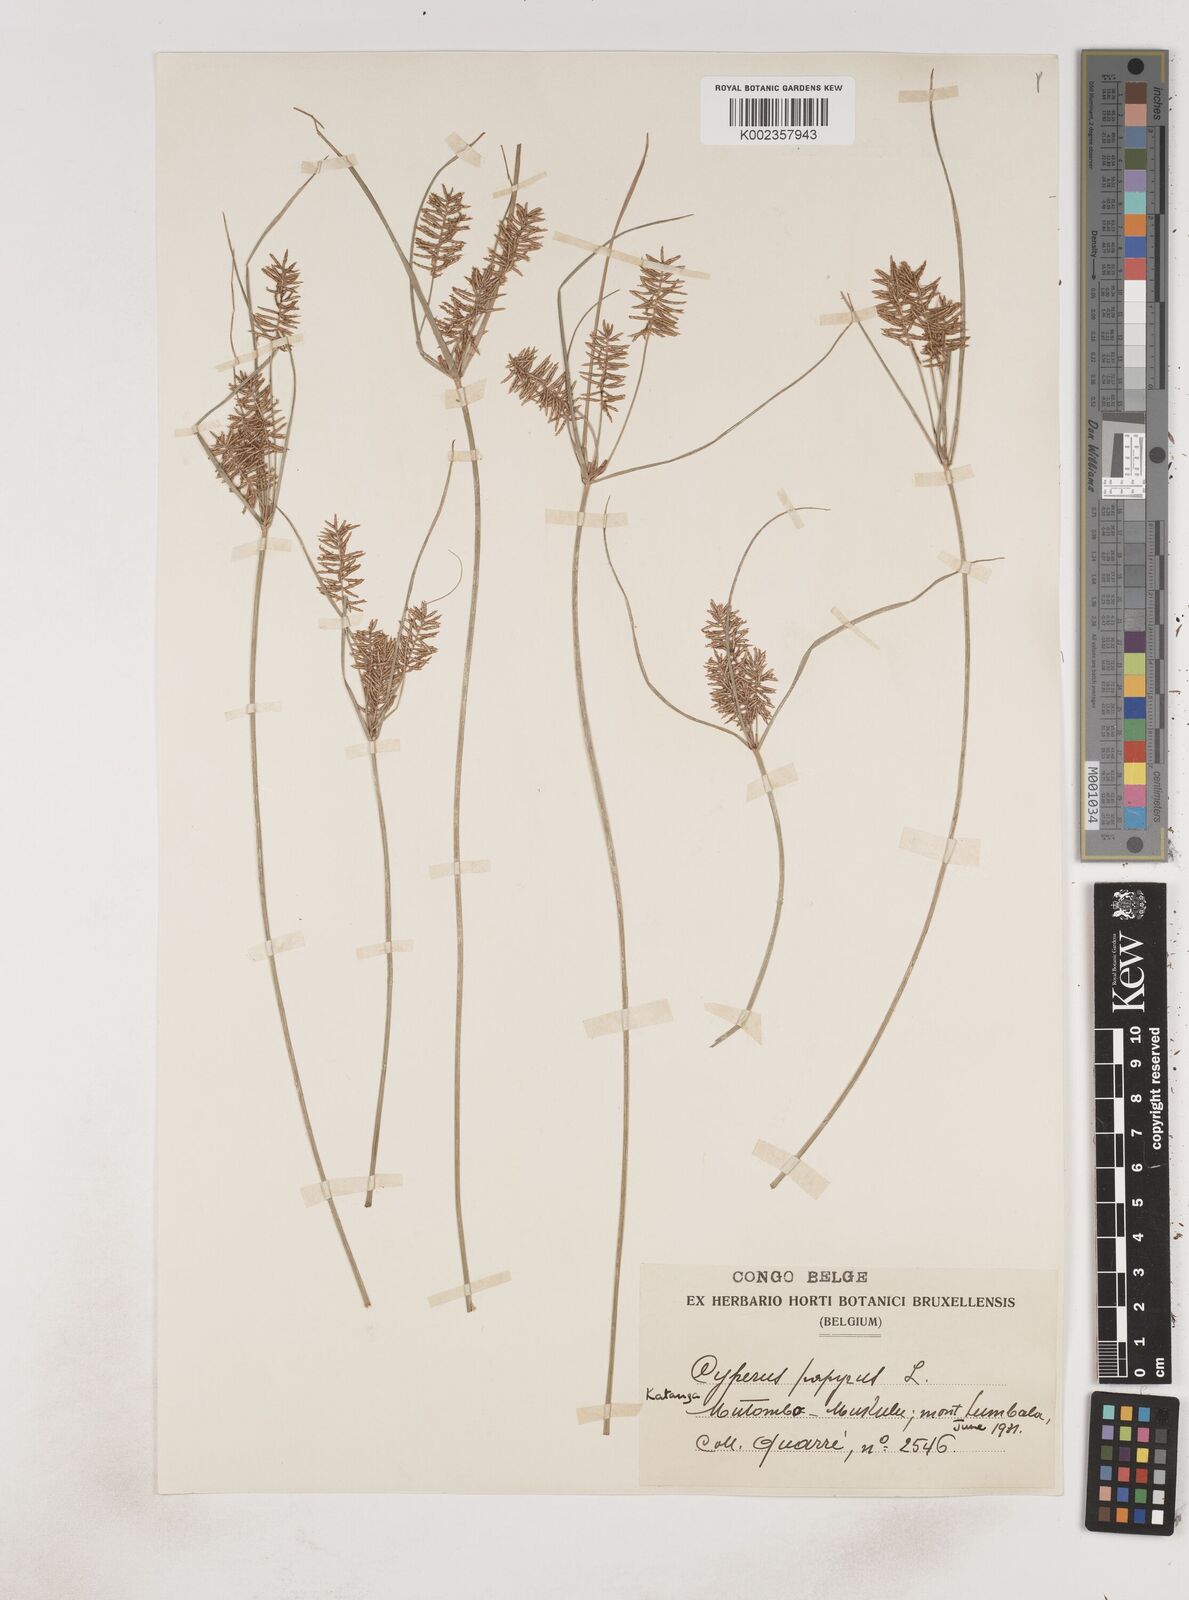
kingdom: Plantae
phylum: Tracheophyta
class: Liliopsida
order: Poales
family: Cyperaceae
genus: Cyperus
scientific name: Cyperus papyrus
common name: Papyrus
